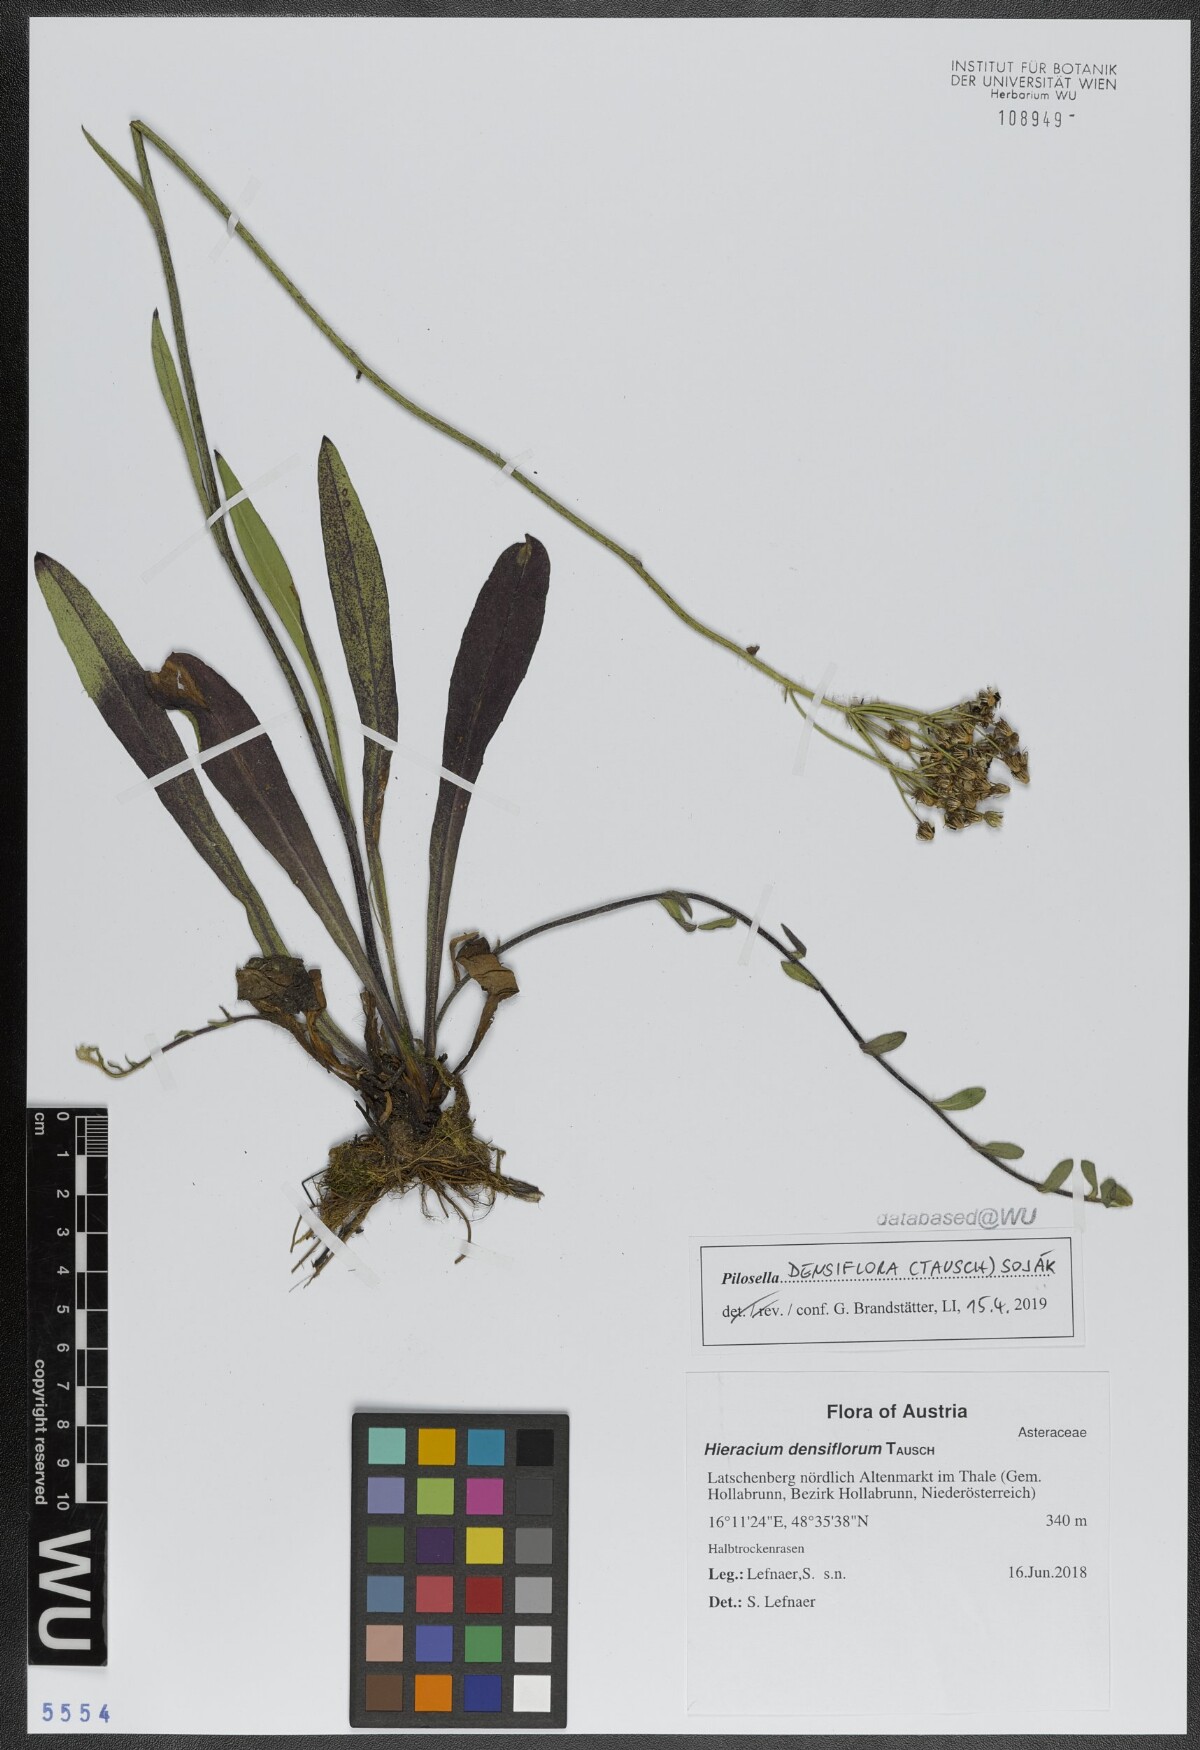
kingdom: Plantae
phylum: Tracheophyta
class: Magnoliopsida
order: Asterales
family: Asteraceae
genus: Pilosella
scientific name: Pilosella densiflora
